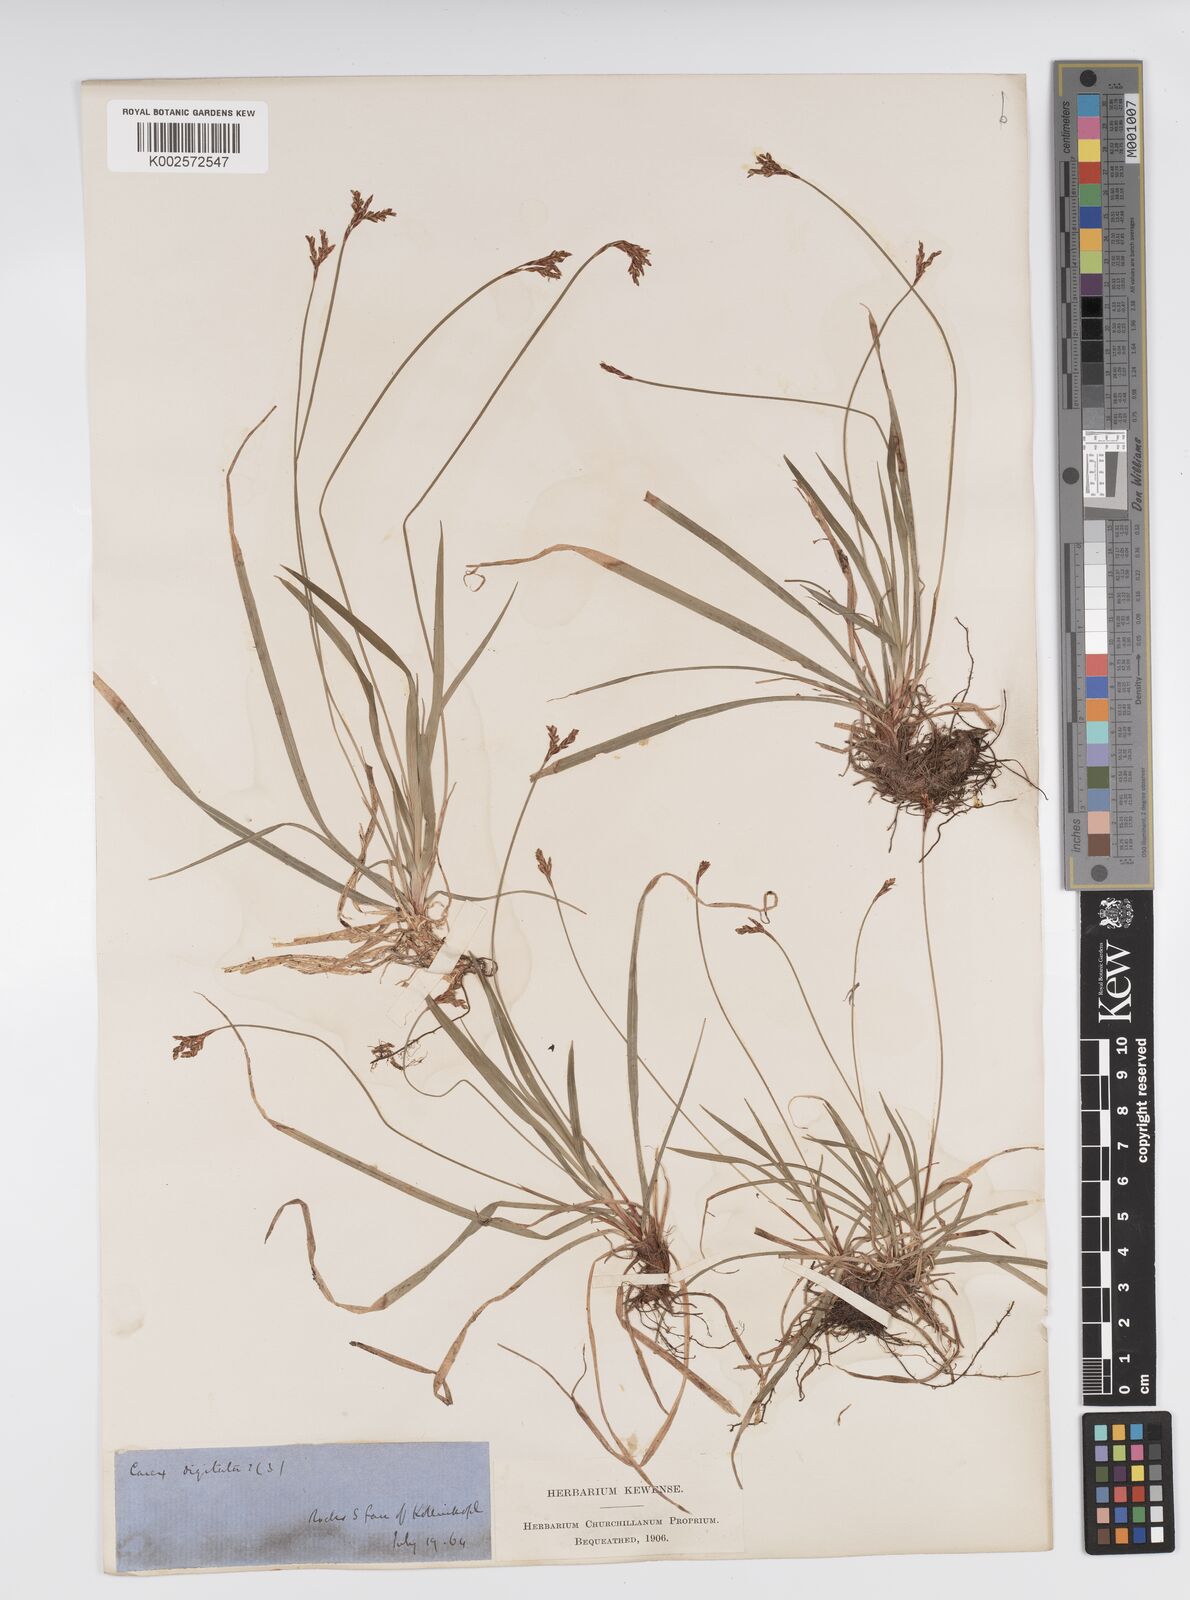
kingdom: Plantae
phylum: Tracheophyta
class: Liliopsida
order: Poales
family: Cyperaceae
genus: Carex
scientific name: Carex digitata
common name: Fingered sedge
